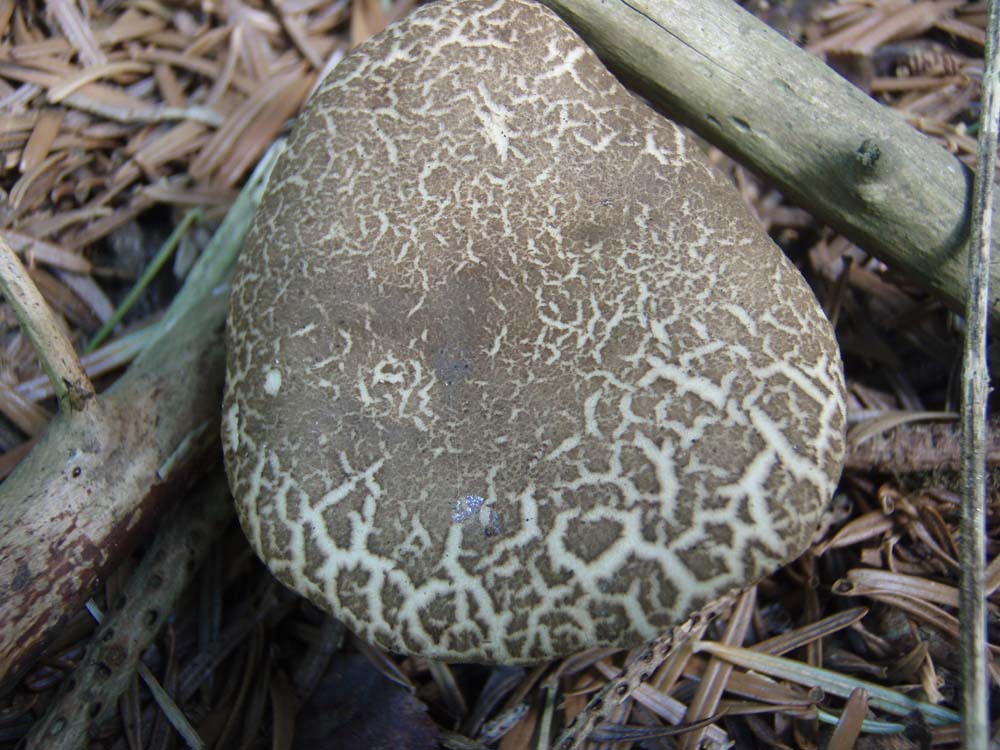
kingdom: Fungi
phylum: Basidiomycota
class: Agaricomycetes
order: Boletales
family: Boletaceae
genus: Xerocomellus
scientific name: Xerocomellus porosporus
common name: hvidsprukken rørhat
